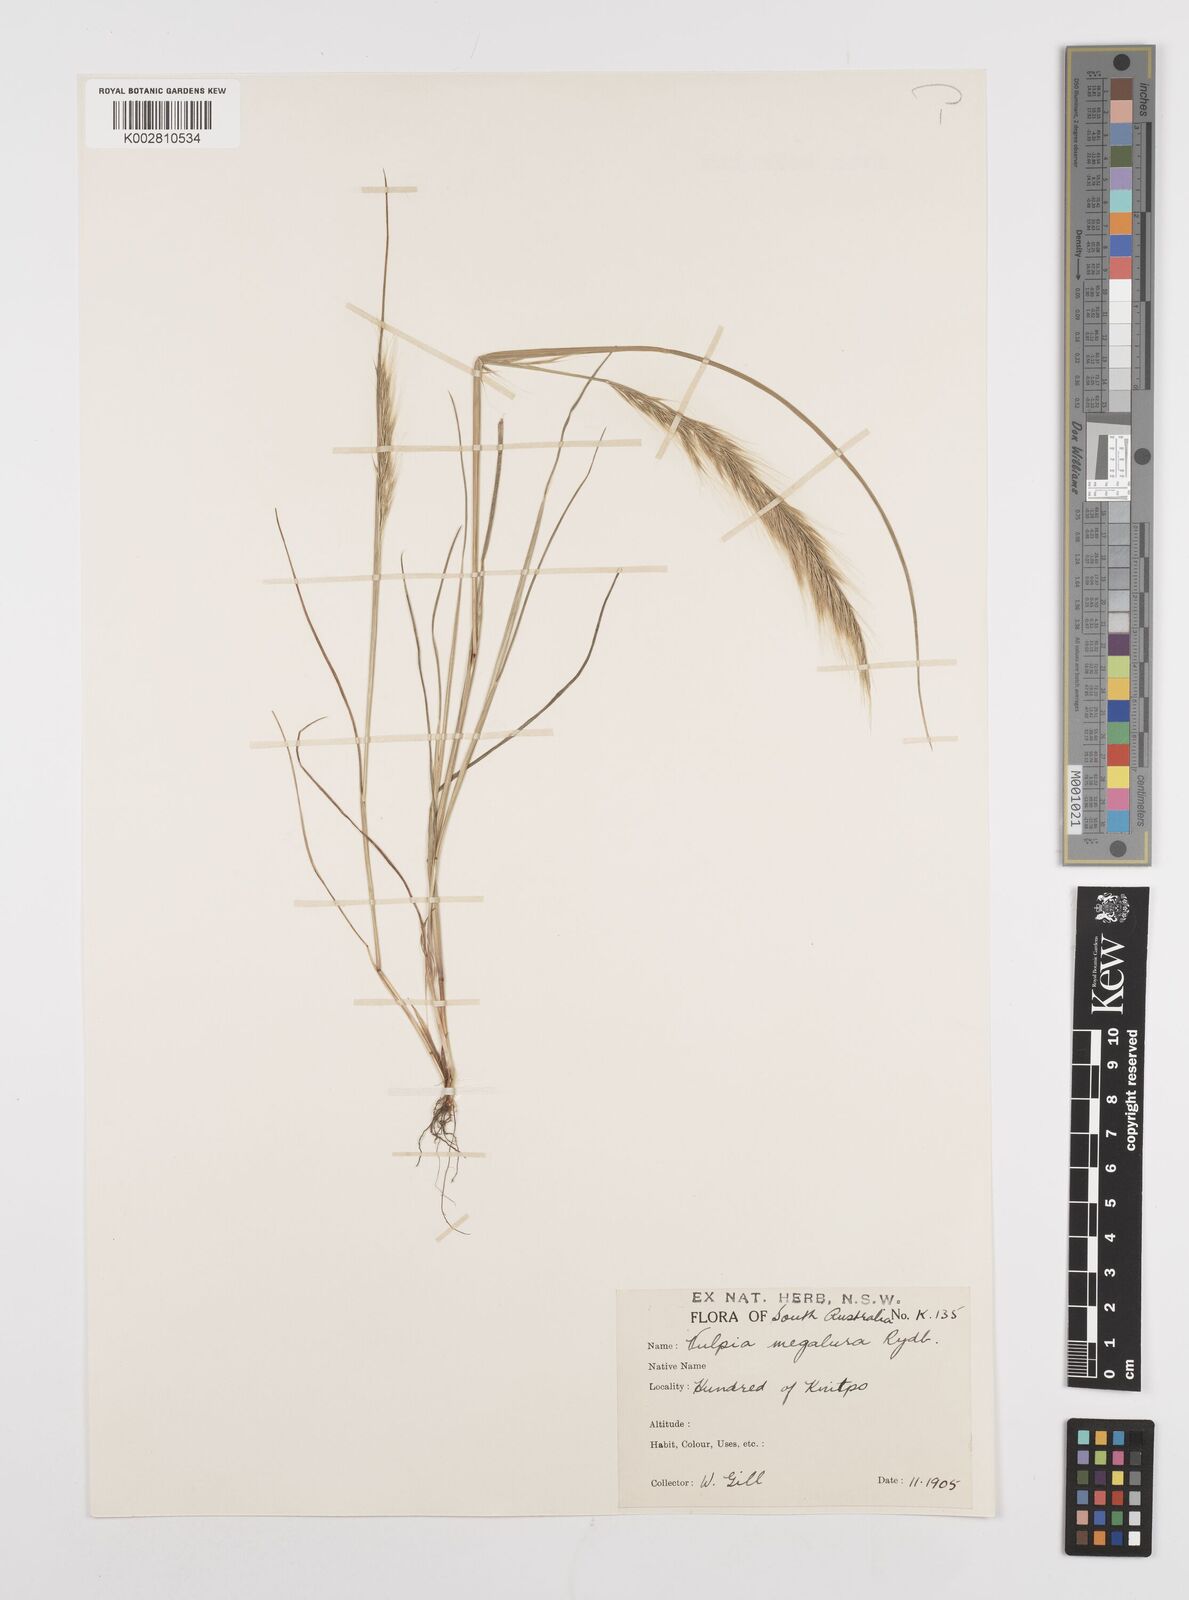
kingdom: Plantae
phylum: Tracheophyta
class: Liliopsida
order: Poales
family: Poaceae
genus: Festuca
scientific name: Festuca myuros
